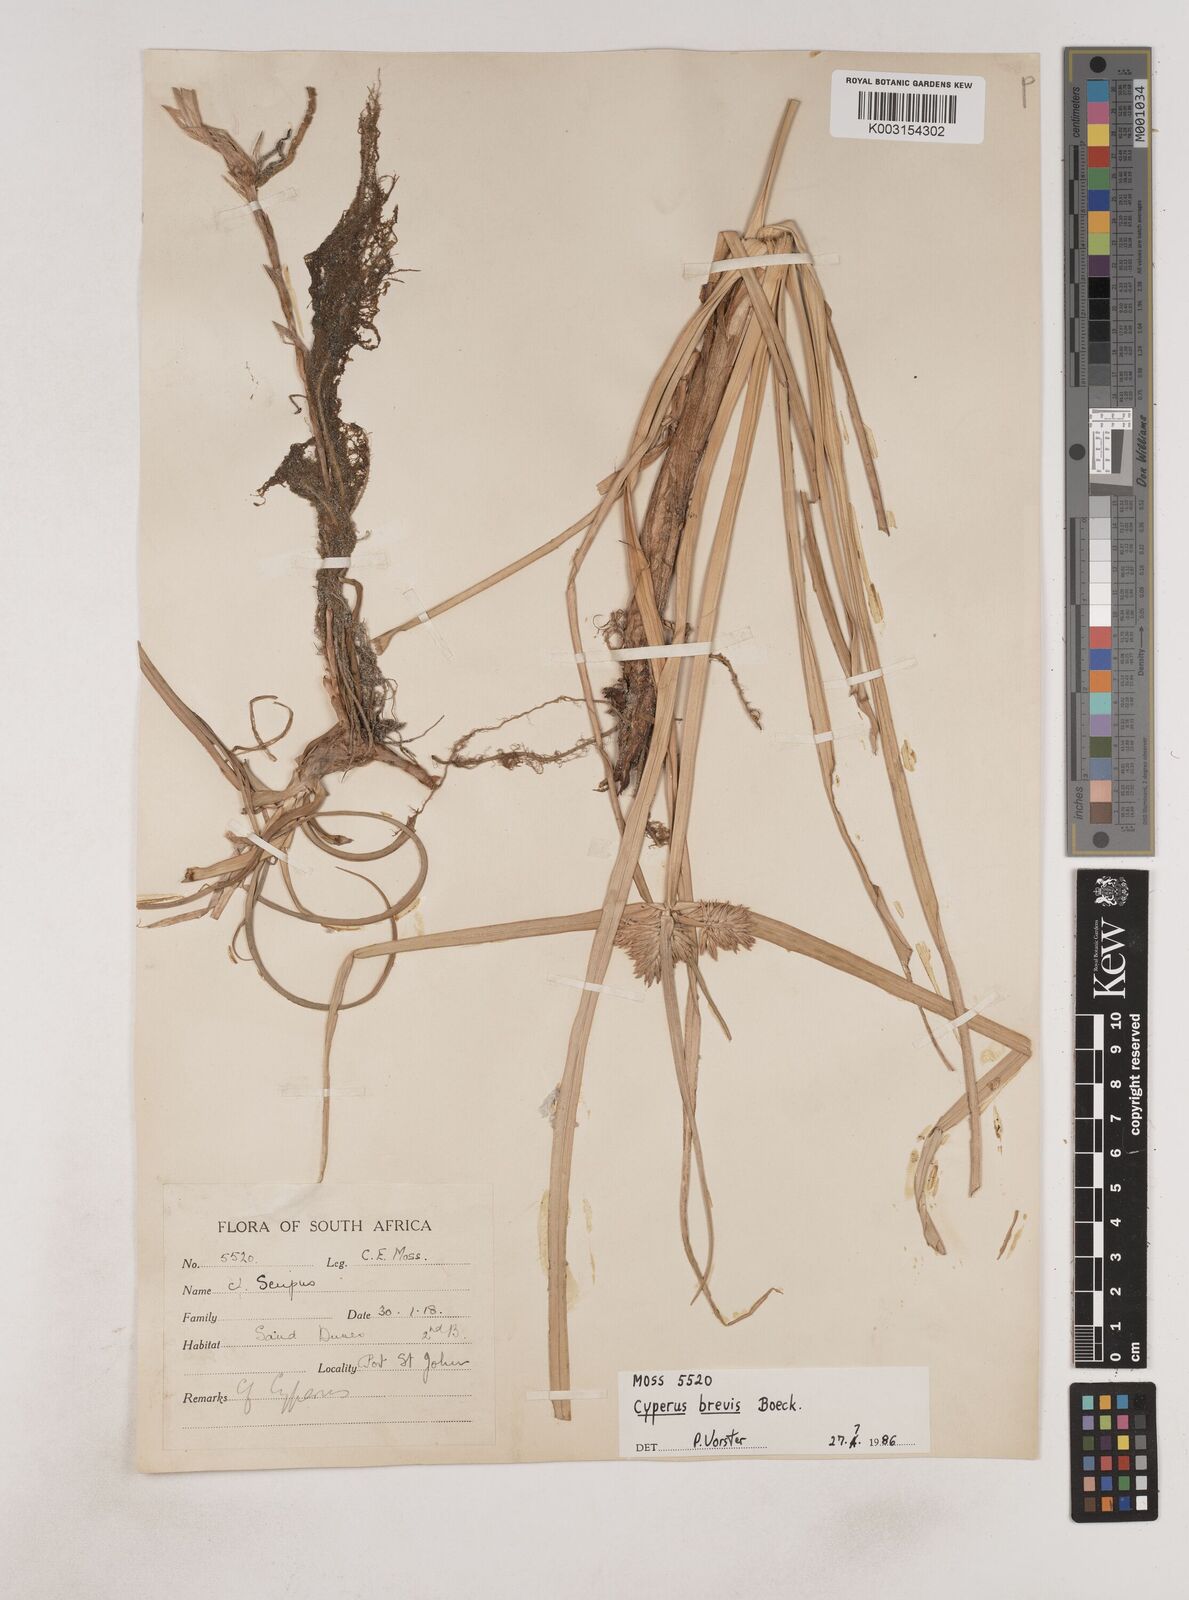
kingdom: Plantae
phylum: Tracheophyta
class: Liliopsida
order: Poales
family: Cyperaceae
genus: Cyperus
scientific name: Cyperus congestus
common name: Dense flat sedge
